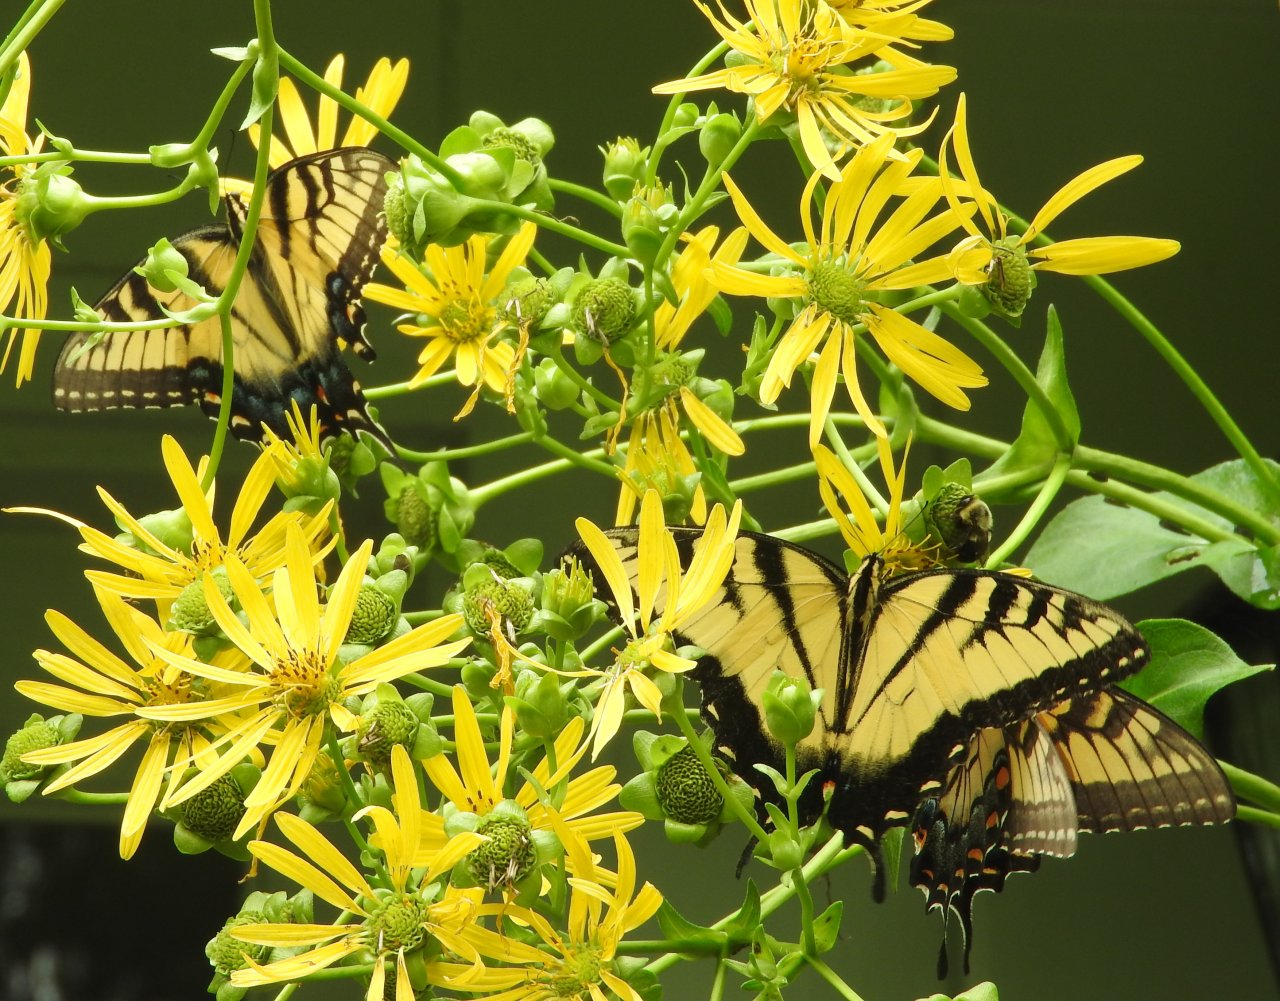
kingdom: Animalia
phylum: Arthropoda
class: Insecta
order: Lepidoptera
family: Papilionidae
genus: Pterourus
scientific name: Pterourus glaucus
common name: Eastern Tiger Swallowtail
